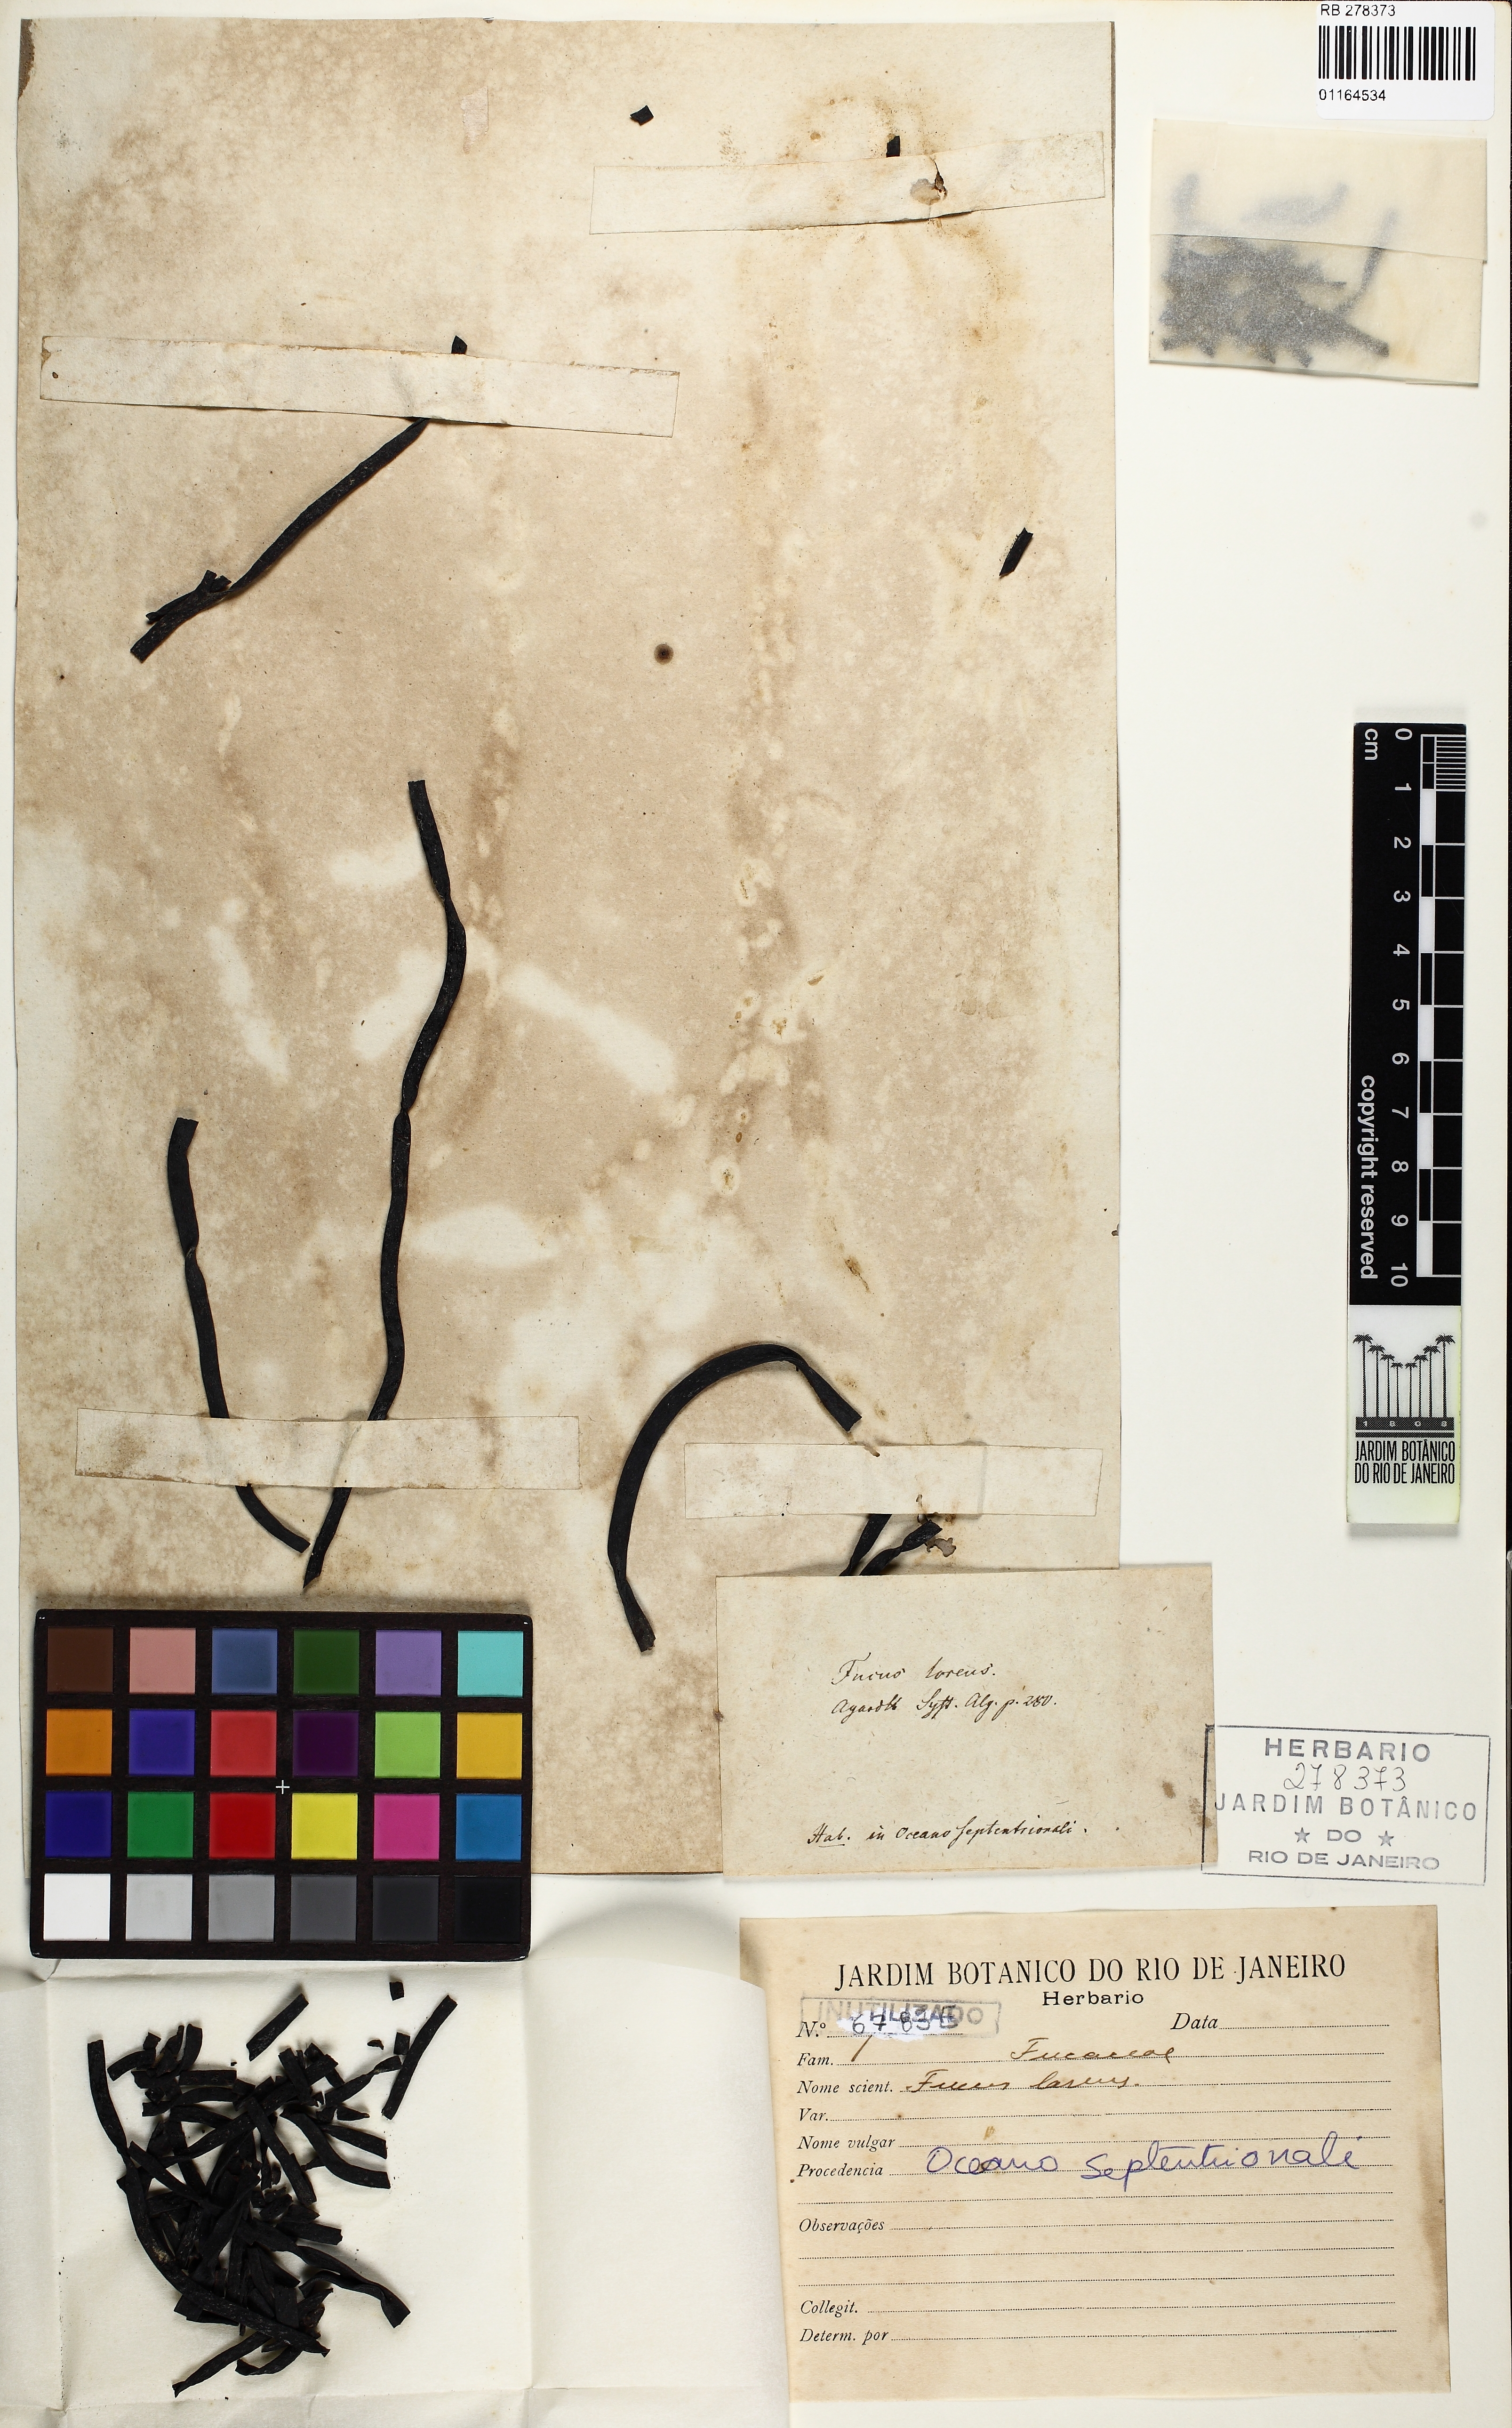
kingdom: Chromista
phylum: Ochrophyta
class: Phaeophyceae
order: Fucales
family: Himanthaliaceae
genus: Himanthalia
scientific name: Himanthalia elongata
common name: Sea-thong
